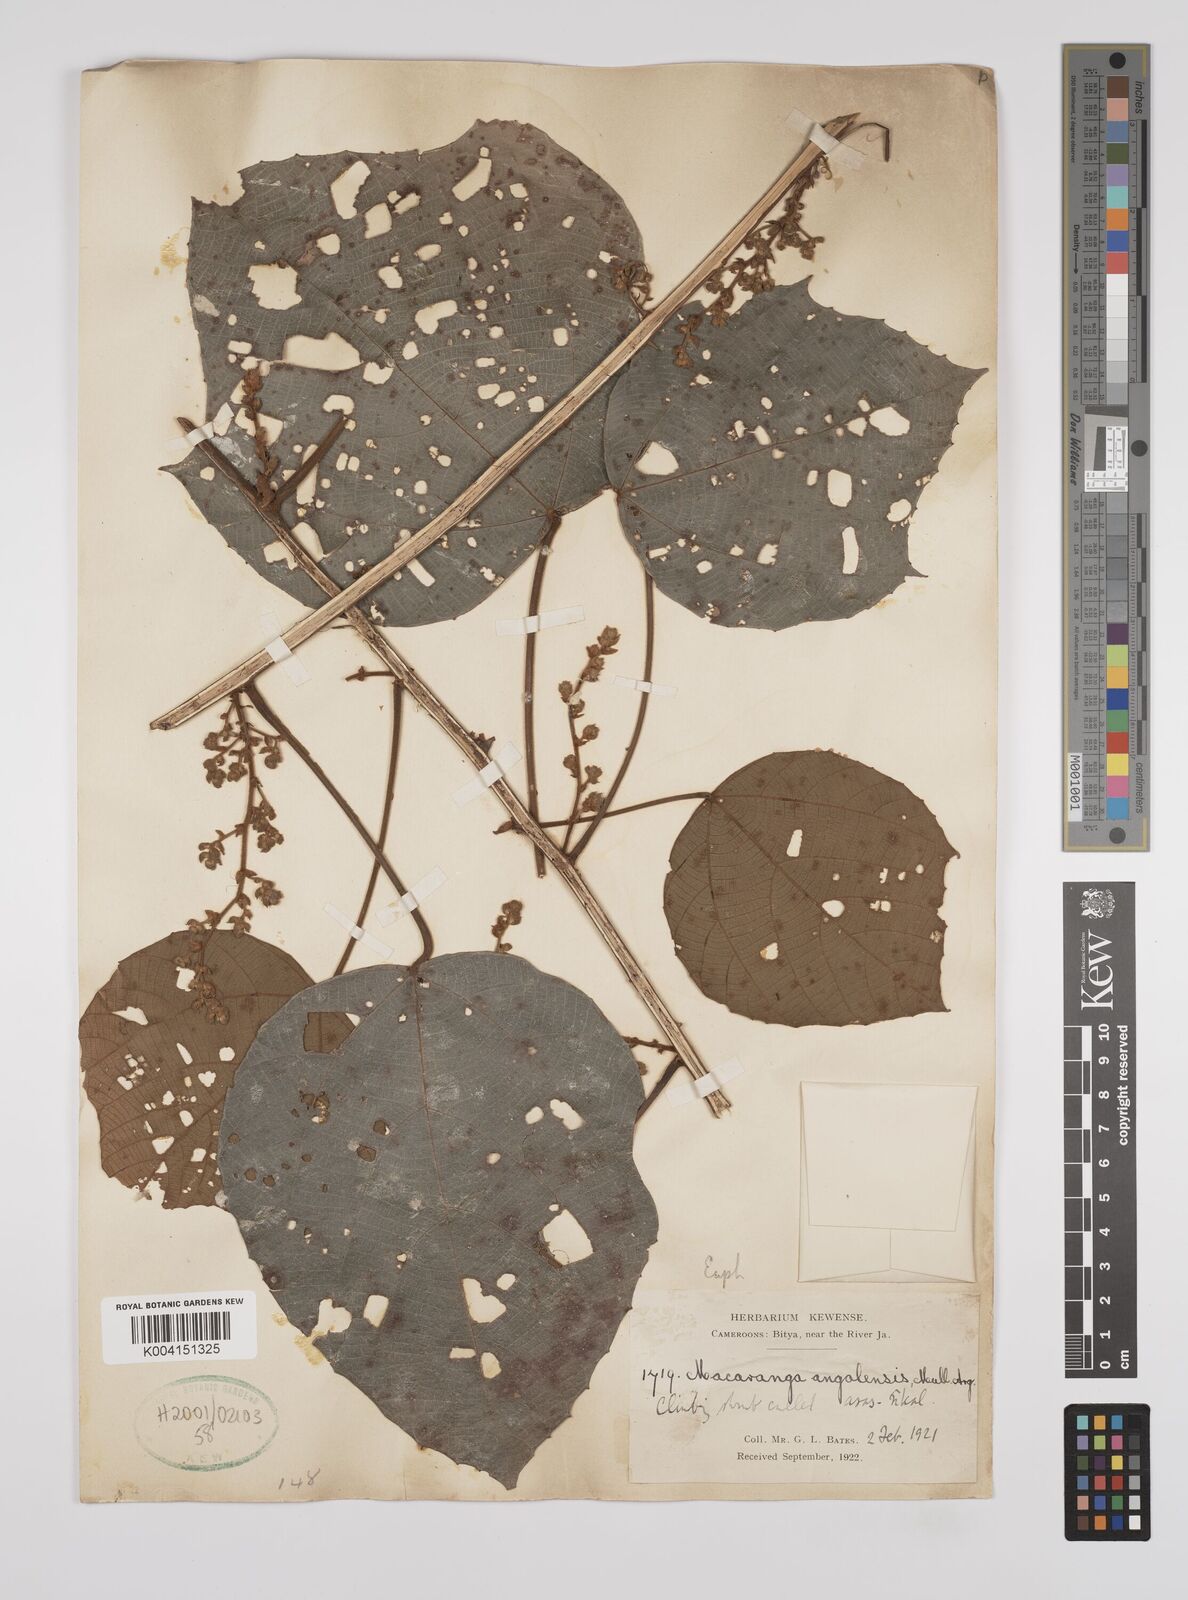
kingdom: Plantae
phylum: Tracheophyta
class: Magnoliopsida
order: Malpighiales
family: Euphorbiaceae
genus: Macaranga
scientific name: Macaranga angolensis
